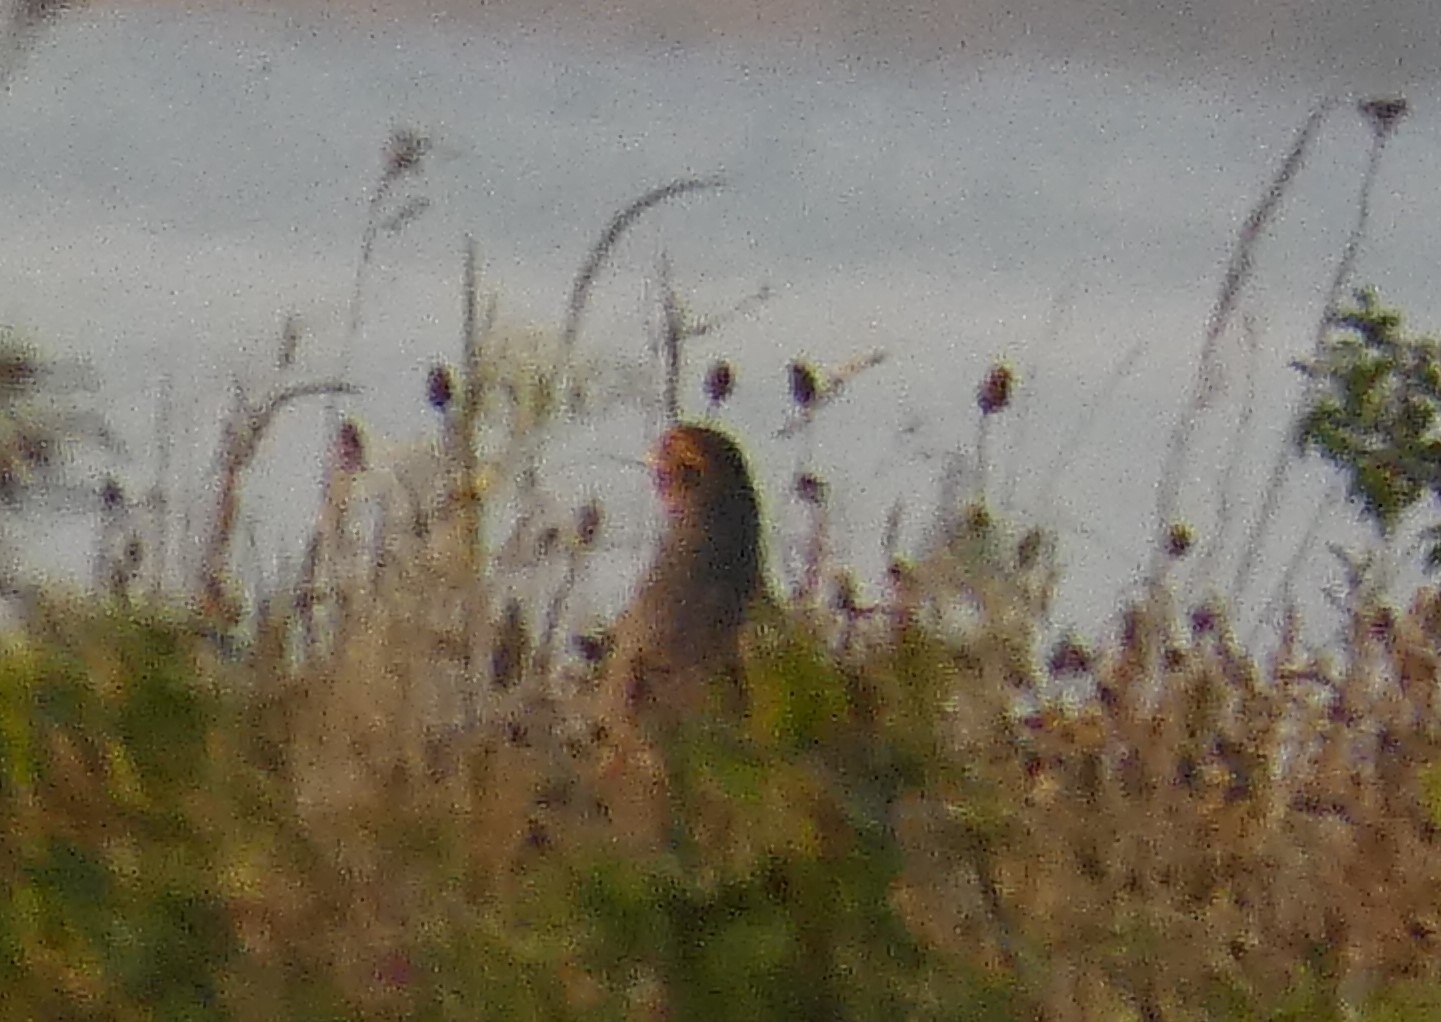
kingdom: Animalia
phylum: Chordata
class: Aves
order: Galliformes
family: Phasianidae
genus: Perdix
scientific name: Perdix perdix
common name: Agerhøne
